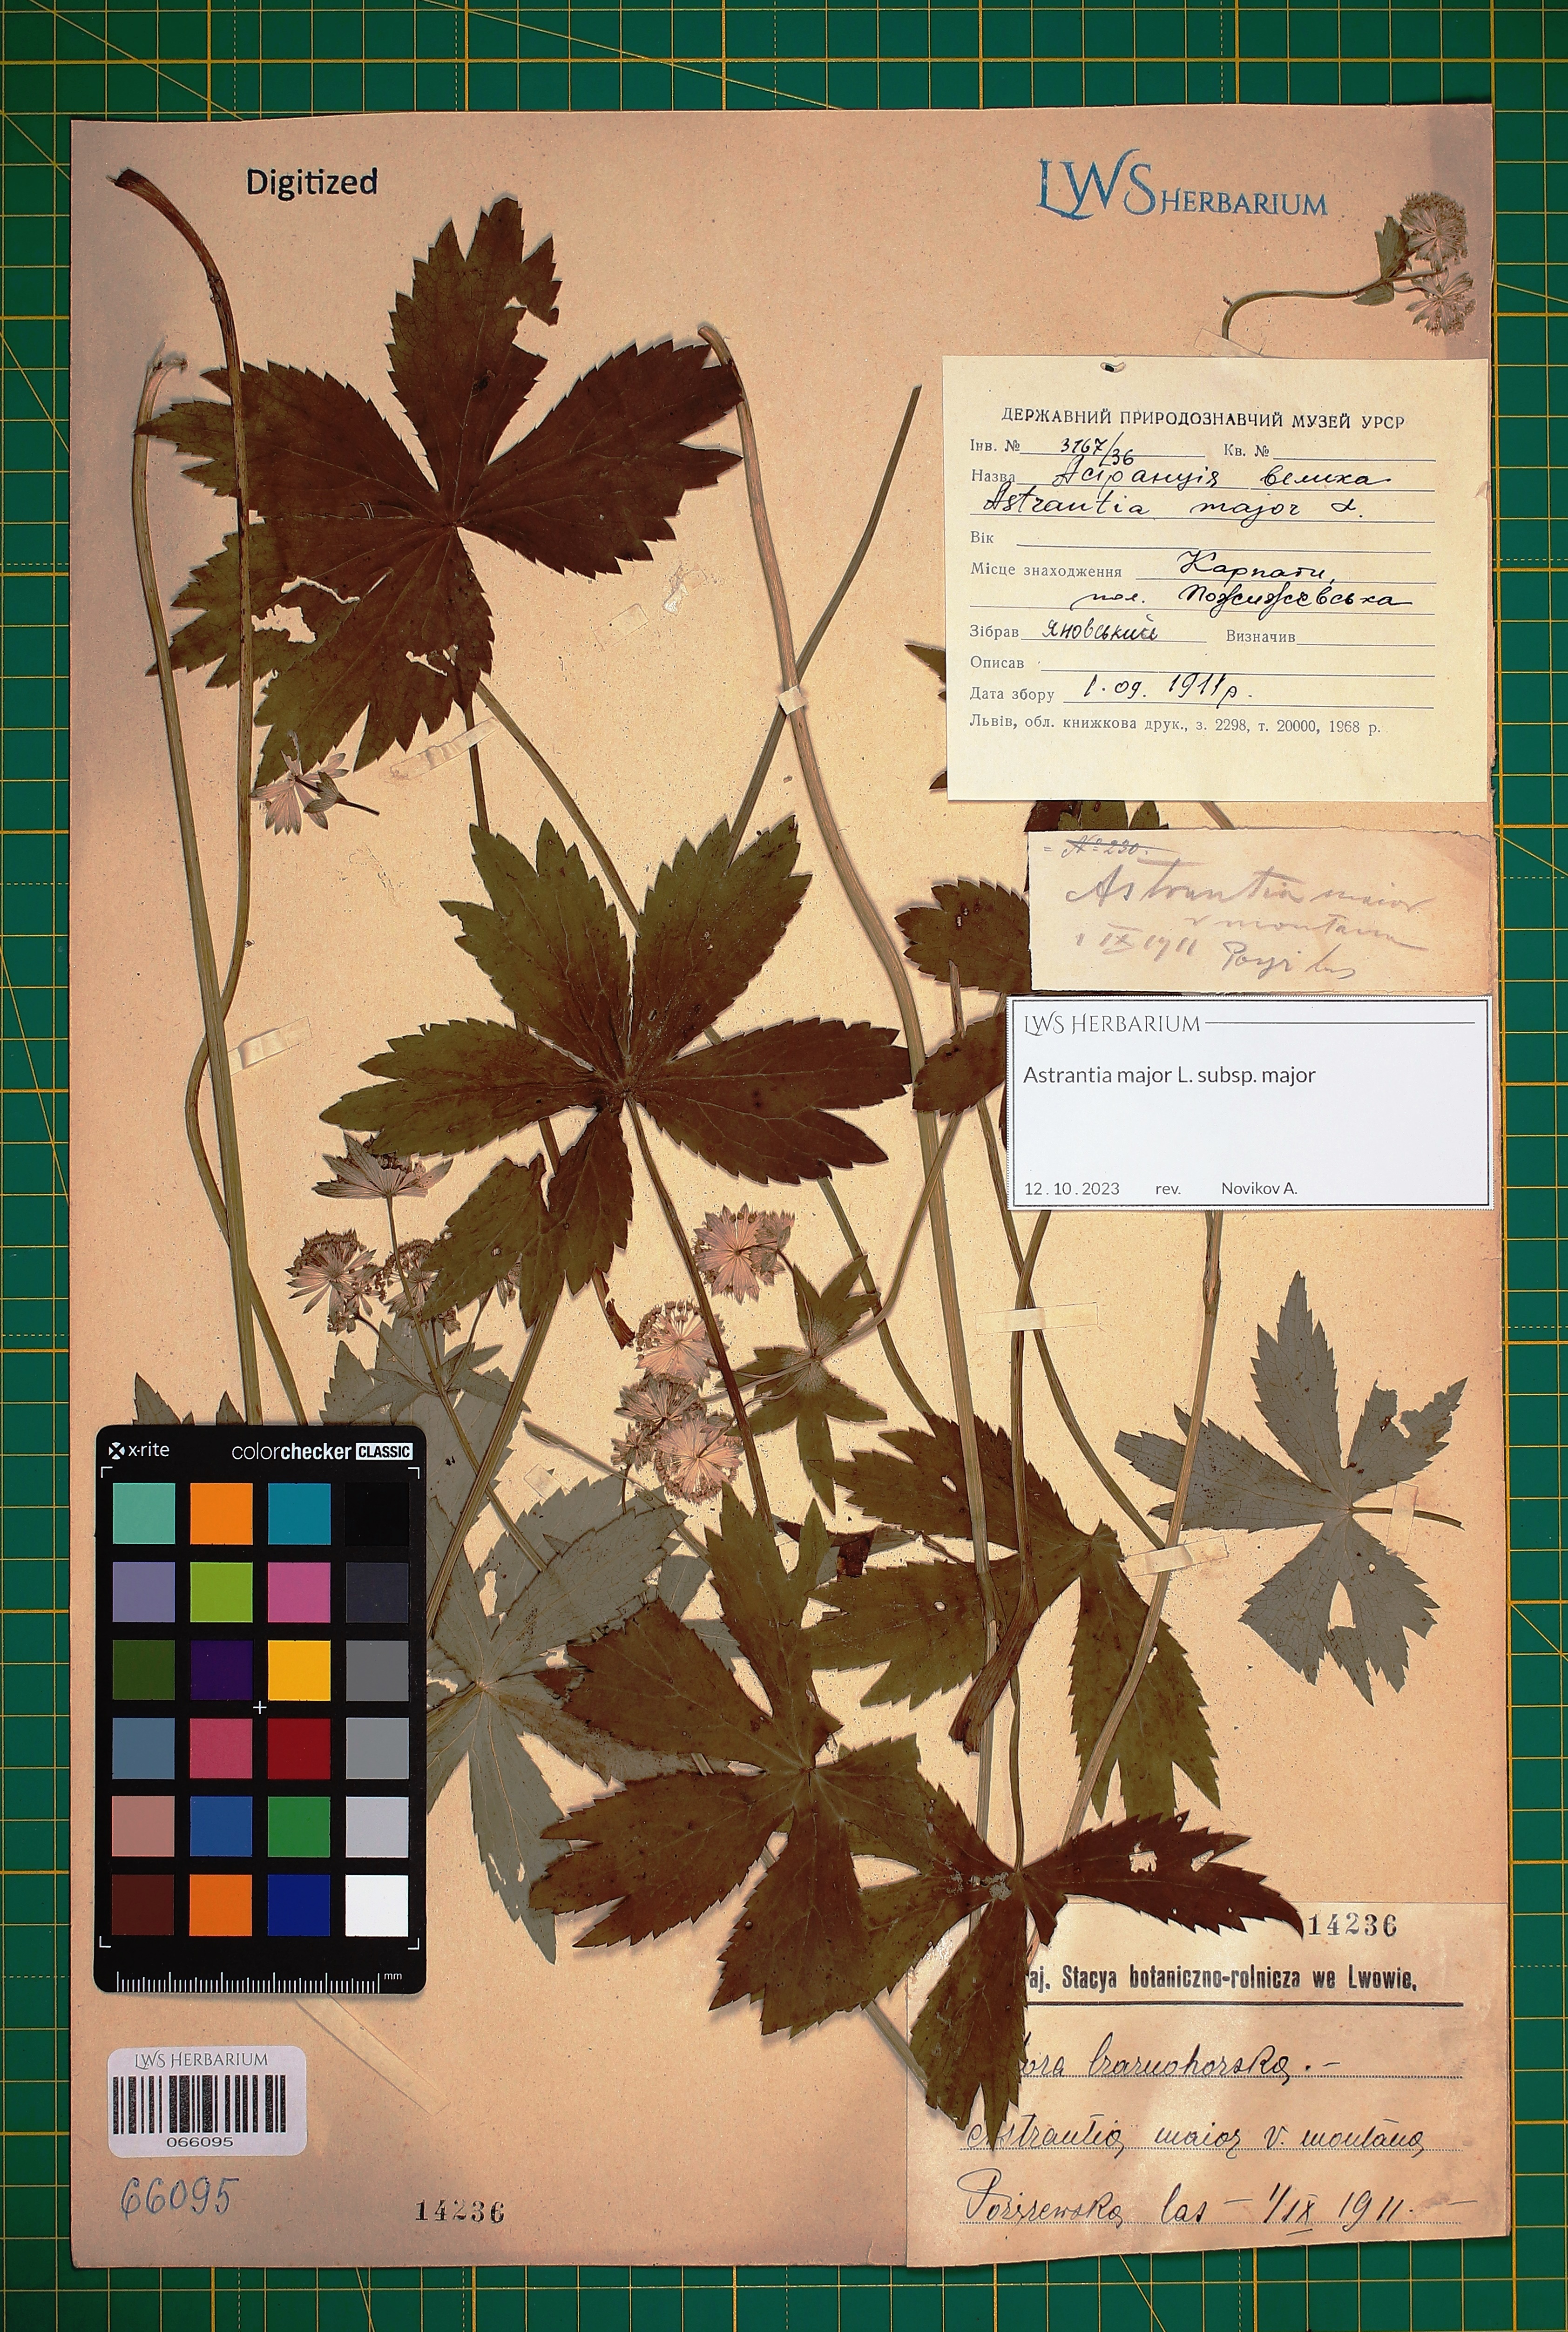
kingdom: Plantae
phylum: Tracheophyta
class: Magnoliopsida
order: Apiales
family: Apiaceae
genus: Astrantia
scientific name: Astrantia major
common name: Greater masterwort
